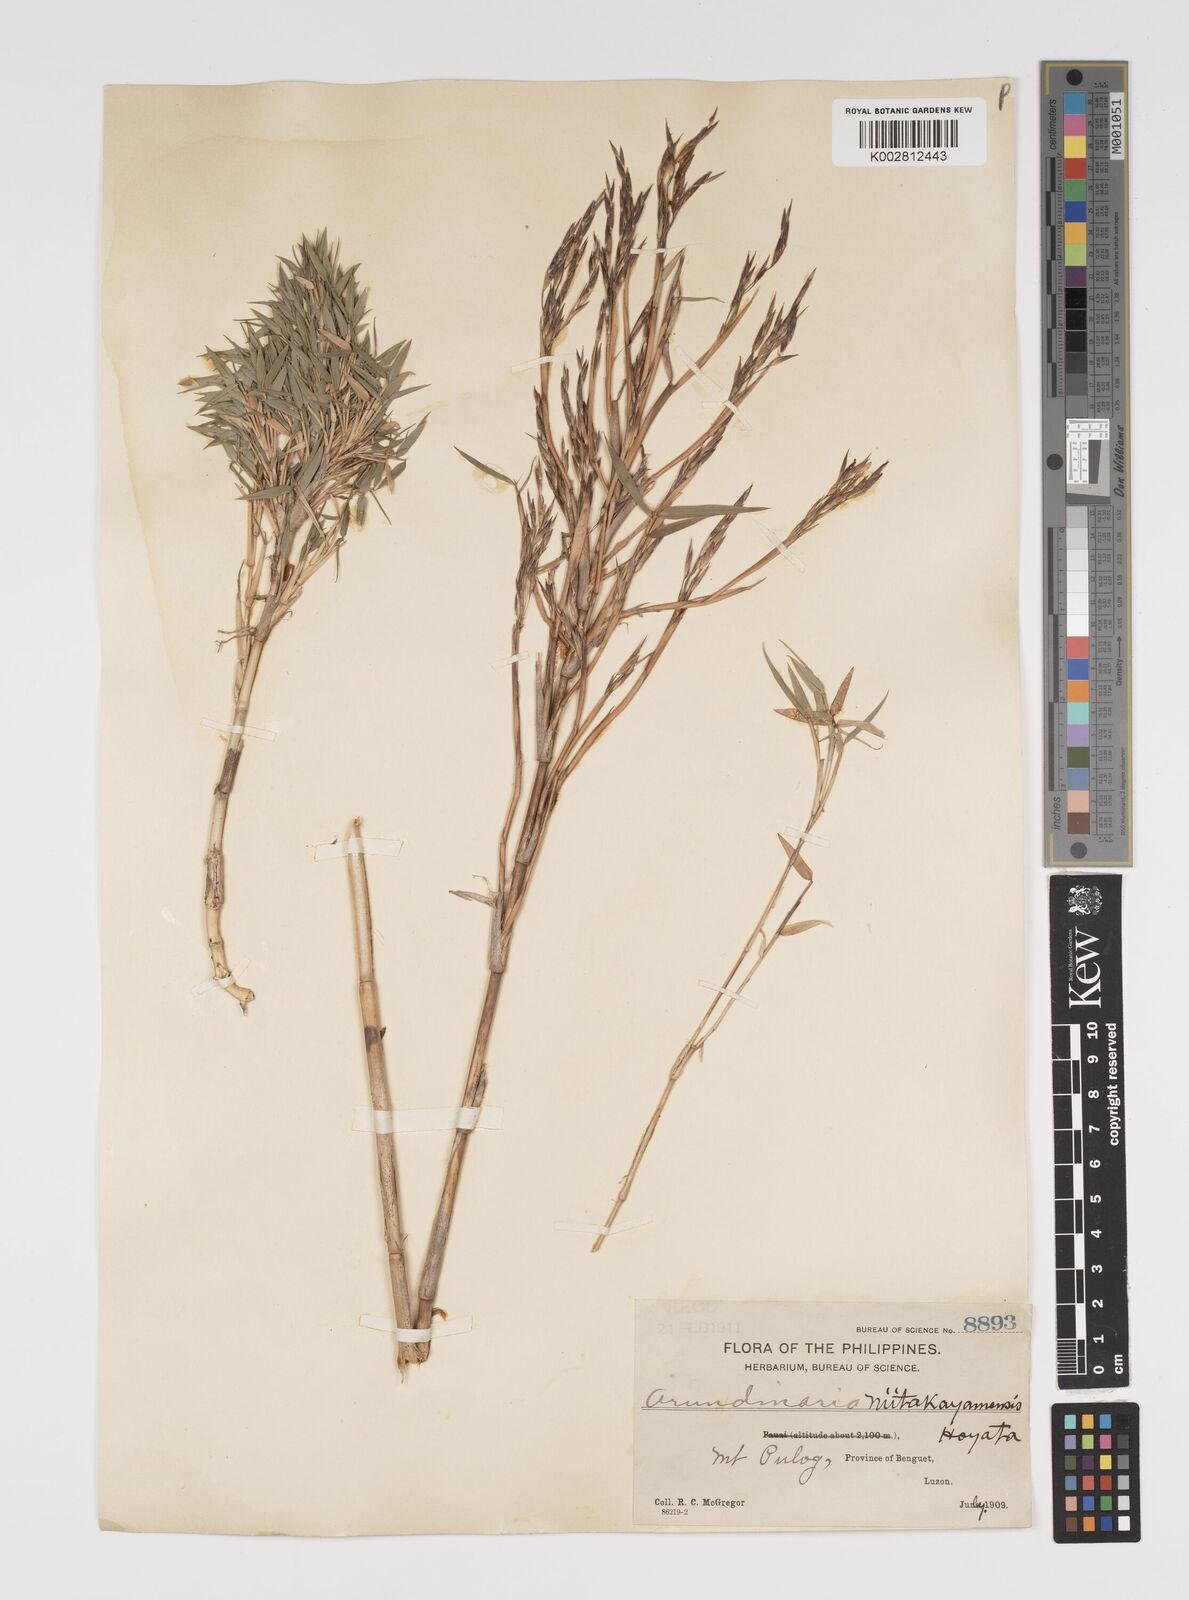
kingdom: Plantae
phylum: Tracheophyta
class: Liliopsida
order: Poales
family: Poaceae
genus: Yushania
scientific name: Yushania niitakayamensis
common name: Yushan cane
